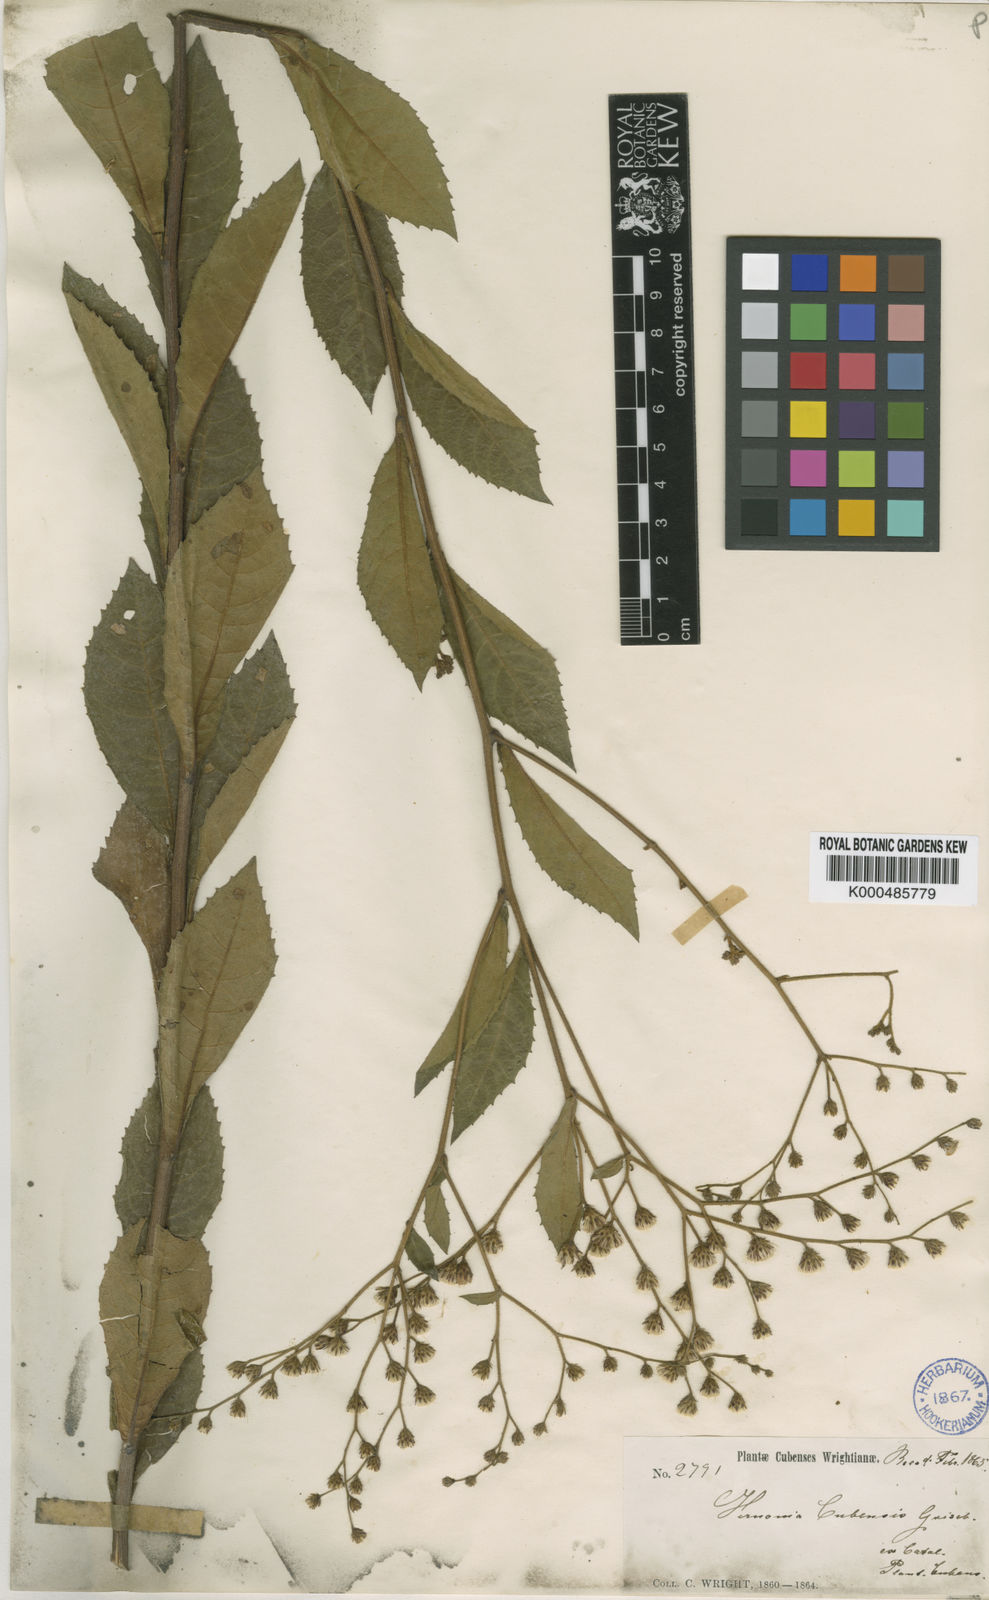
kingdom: Plantae
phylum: Tracheophyta
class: Magnoliopsida
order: Asterales
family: Asteraceae
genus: Vernonanthura
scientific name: Vernonanthura havanensis
